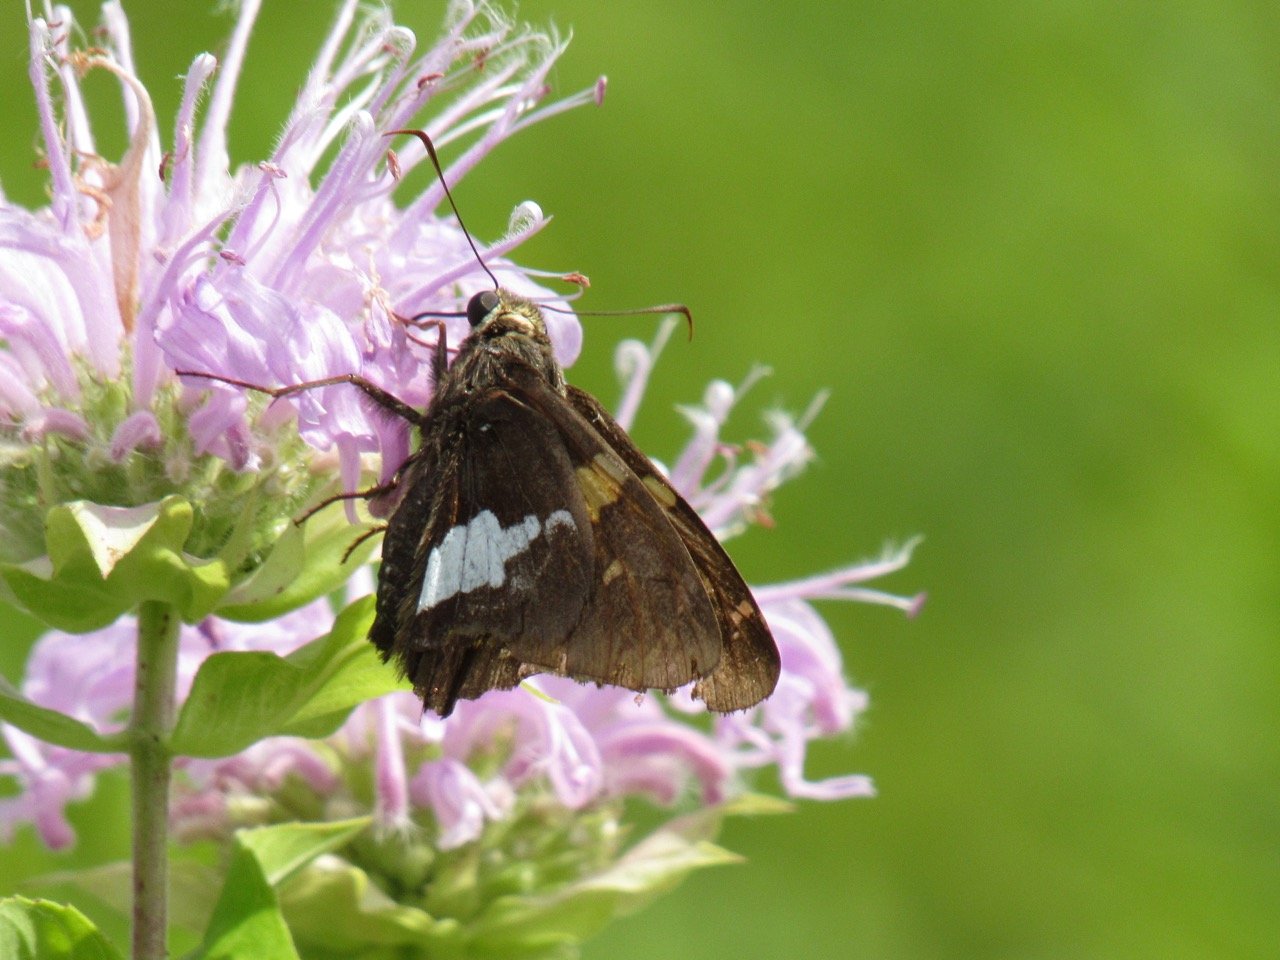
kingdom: Animalia
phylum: Arthropoda
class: Insecta
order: Lepidoptera
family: Hesperiidae
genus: Epargyreus
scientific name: Epargyreus clarus
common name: Silver-spotted Skipper
